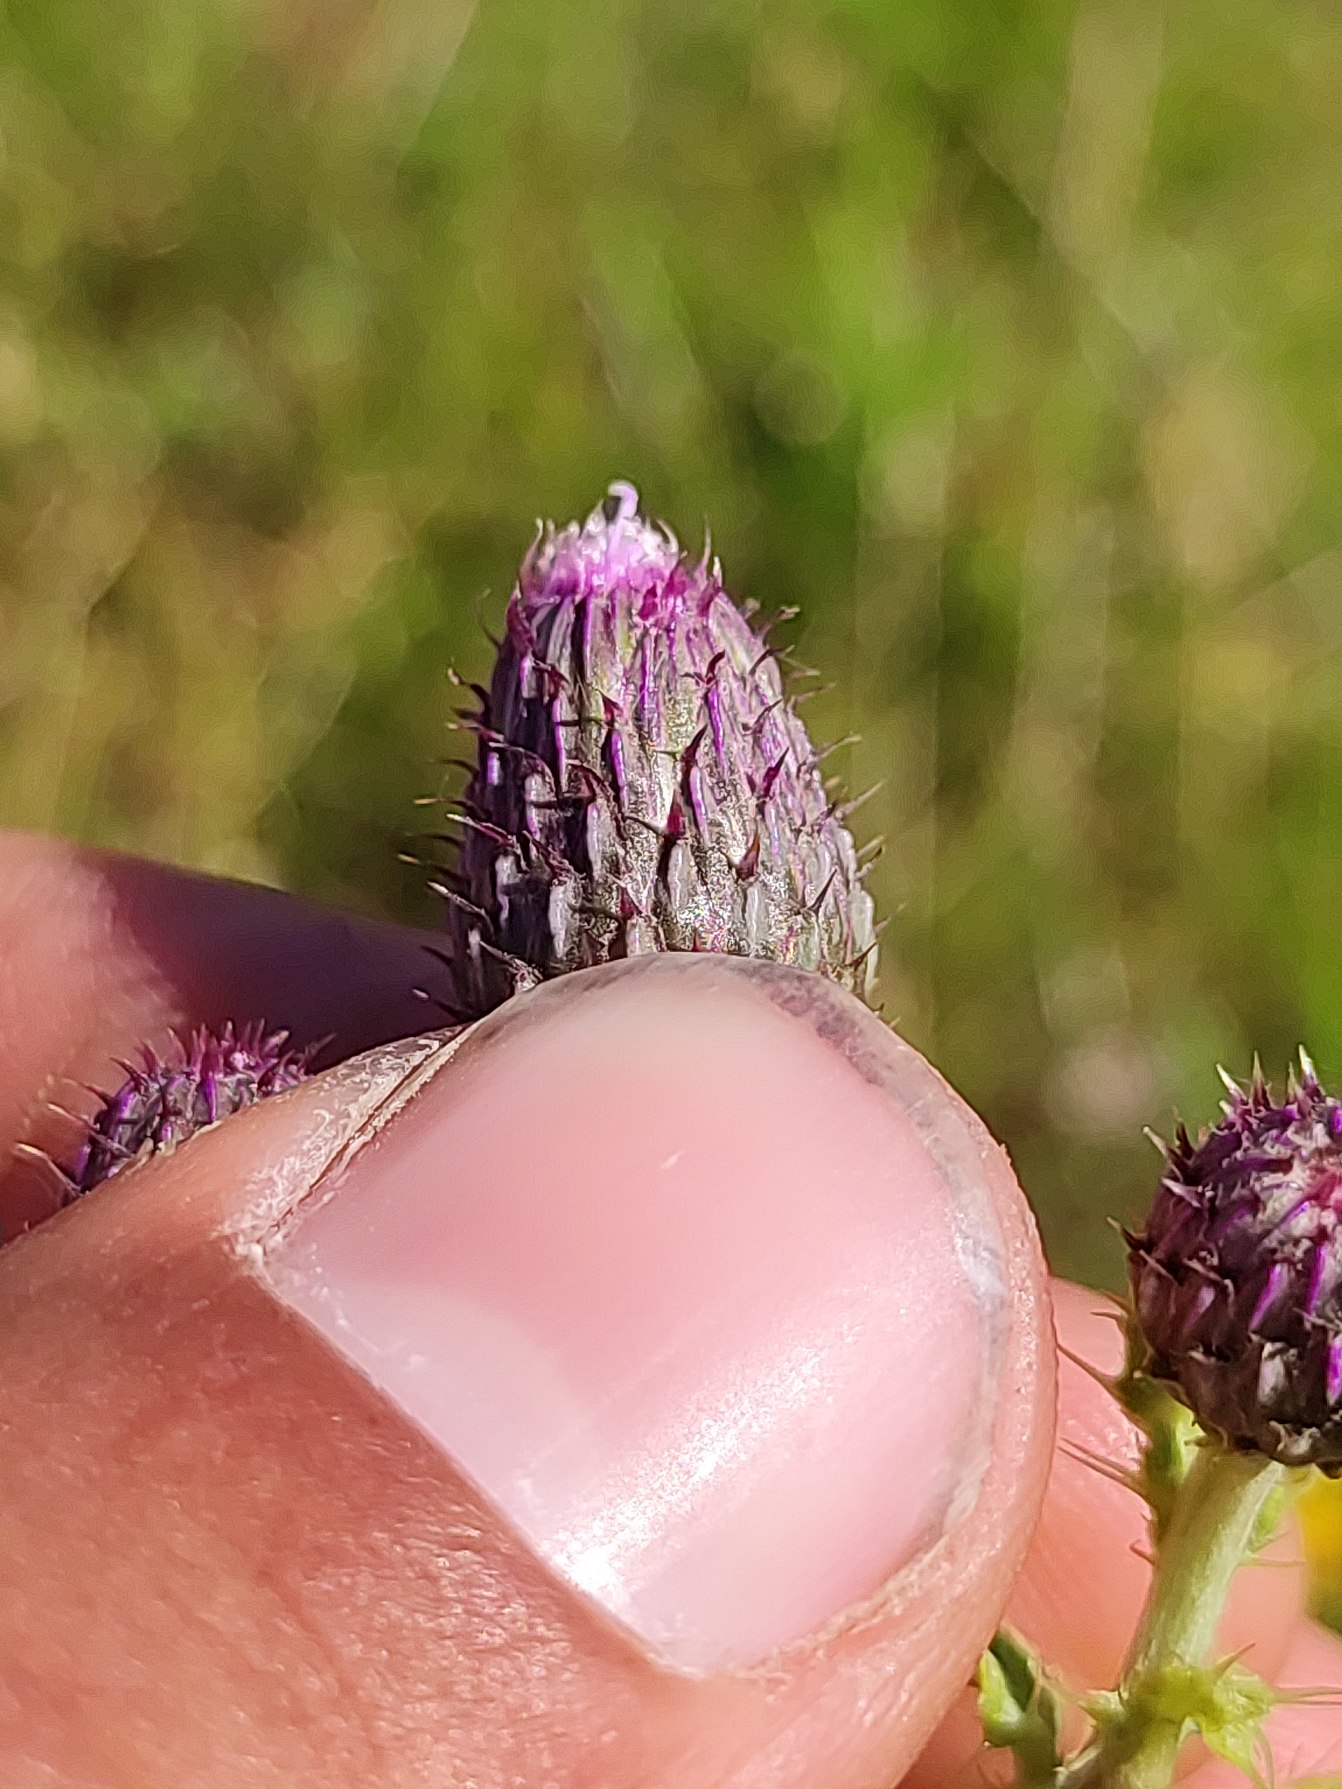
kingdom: Plantae
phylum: Tracheophyta
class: Magnoliopsida
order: Asterales
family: Asteraceae
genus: Cirsium
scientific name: Cirsium arvense
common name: Ager-tidsel
